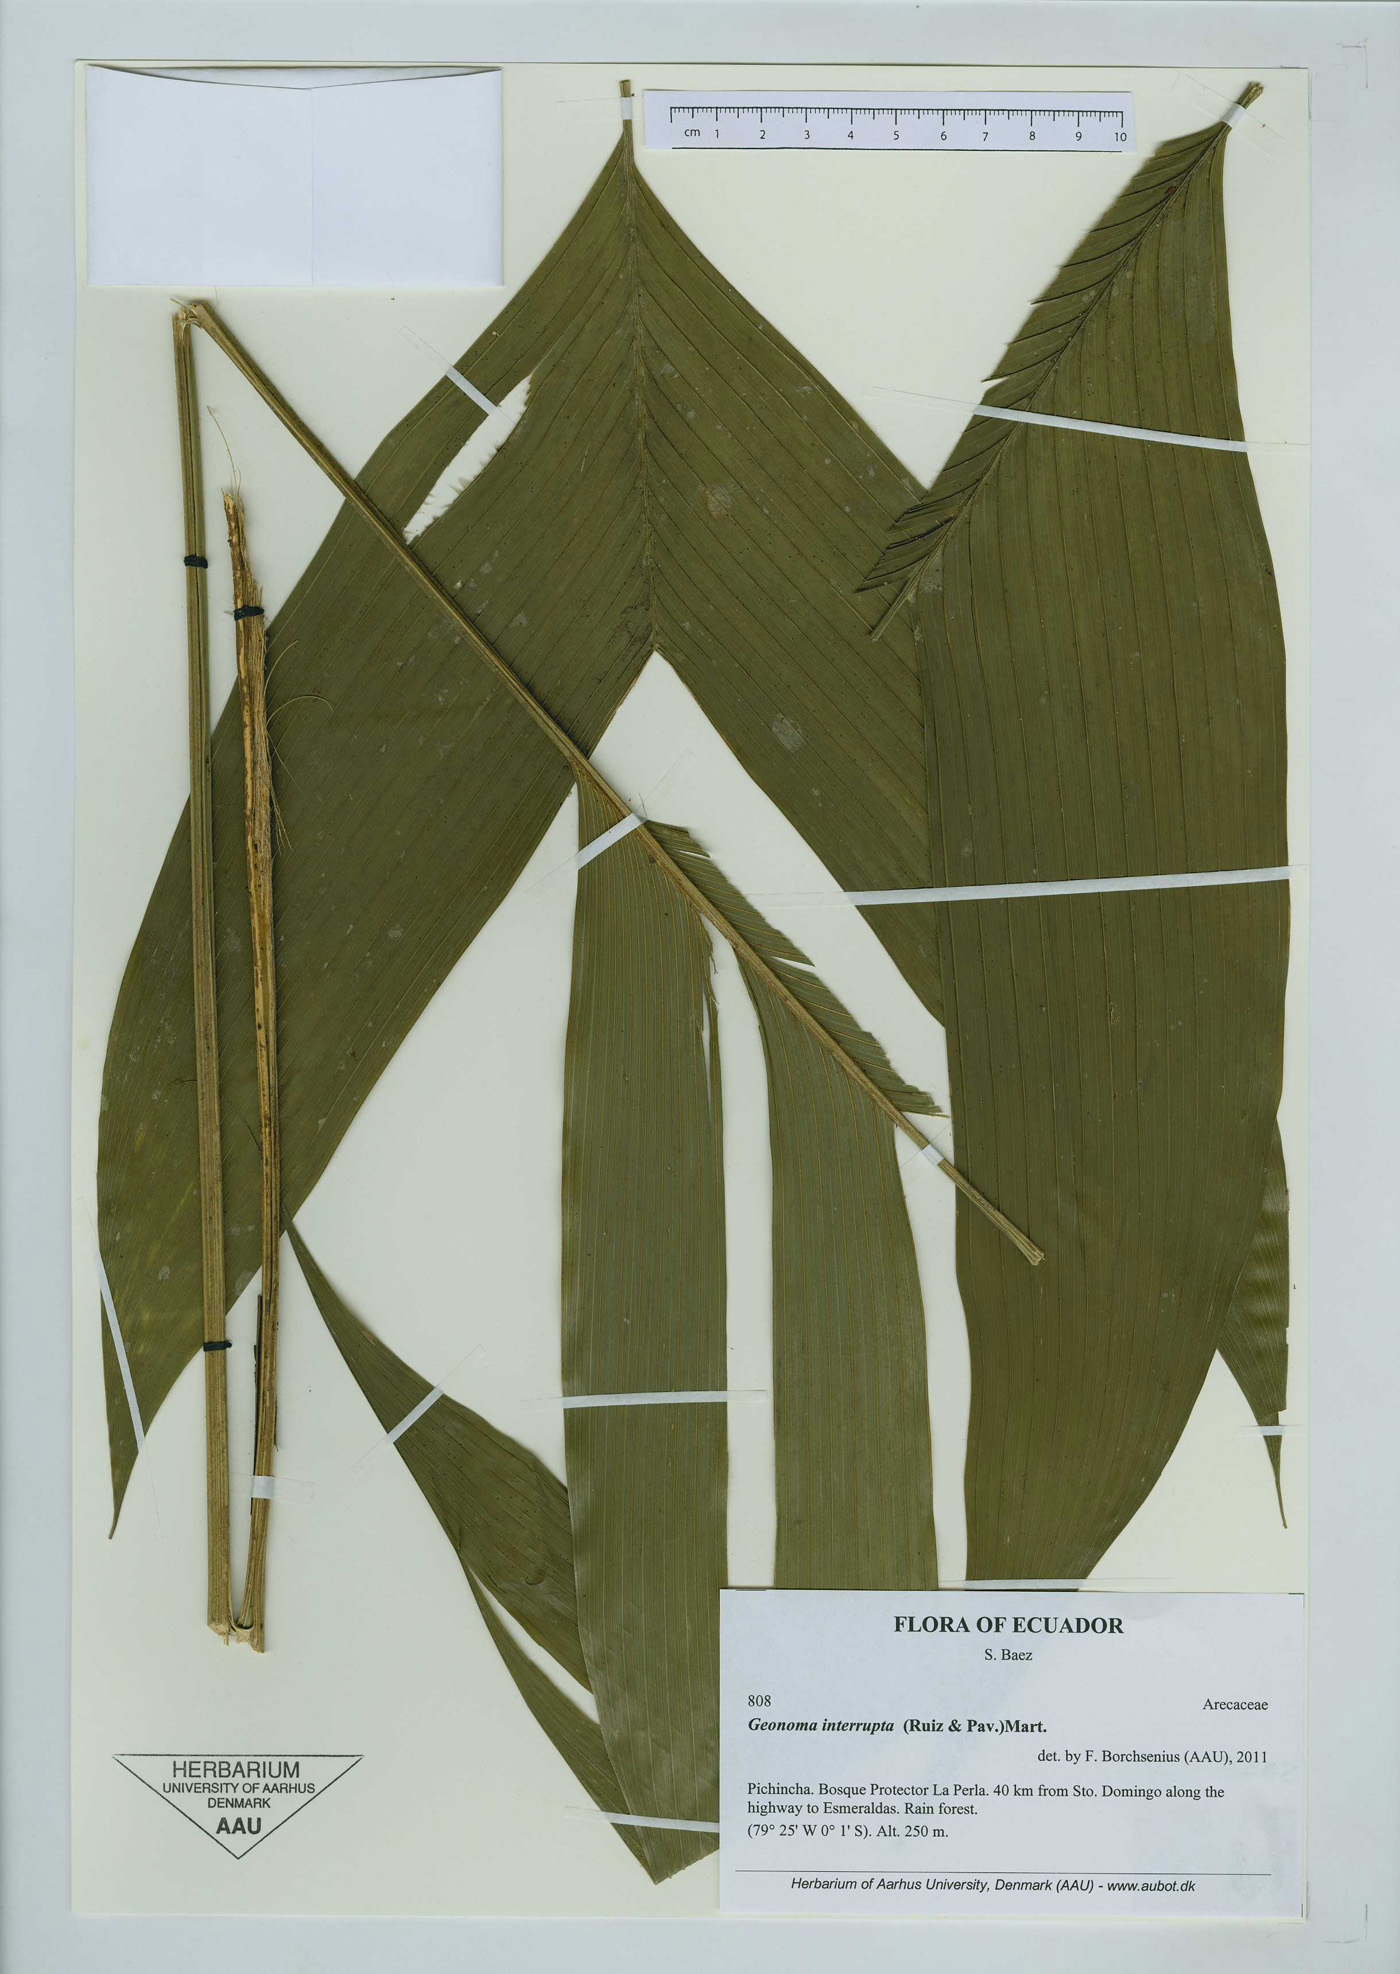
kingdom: Plantae
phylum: Tracheophyta
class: Liliopsida
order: Arecales
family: Arecaceae
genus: Geonoma
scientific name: Geonoma interrupta
